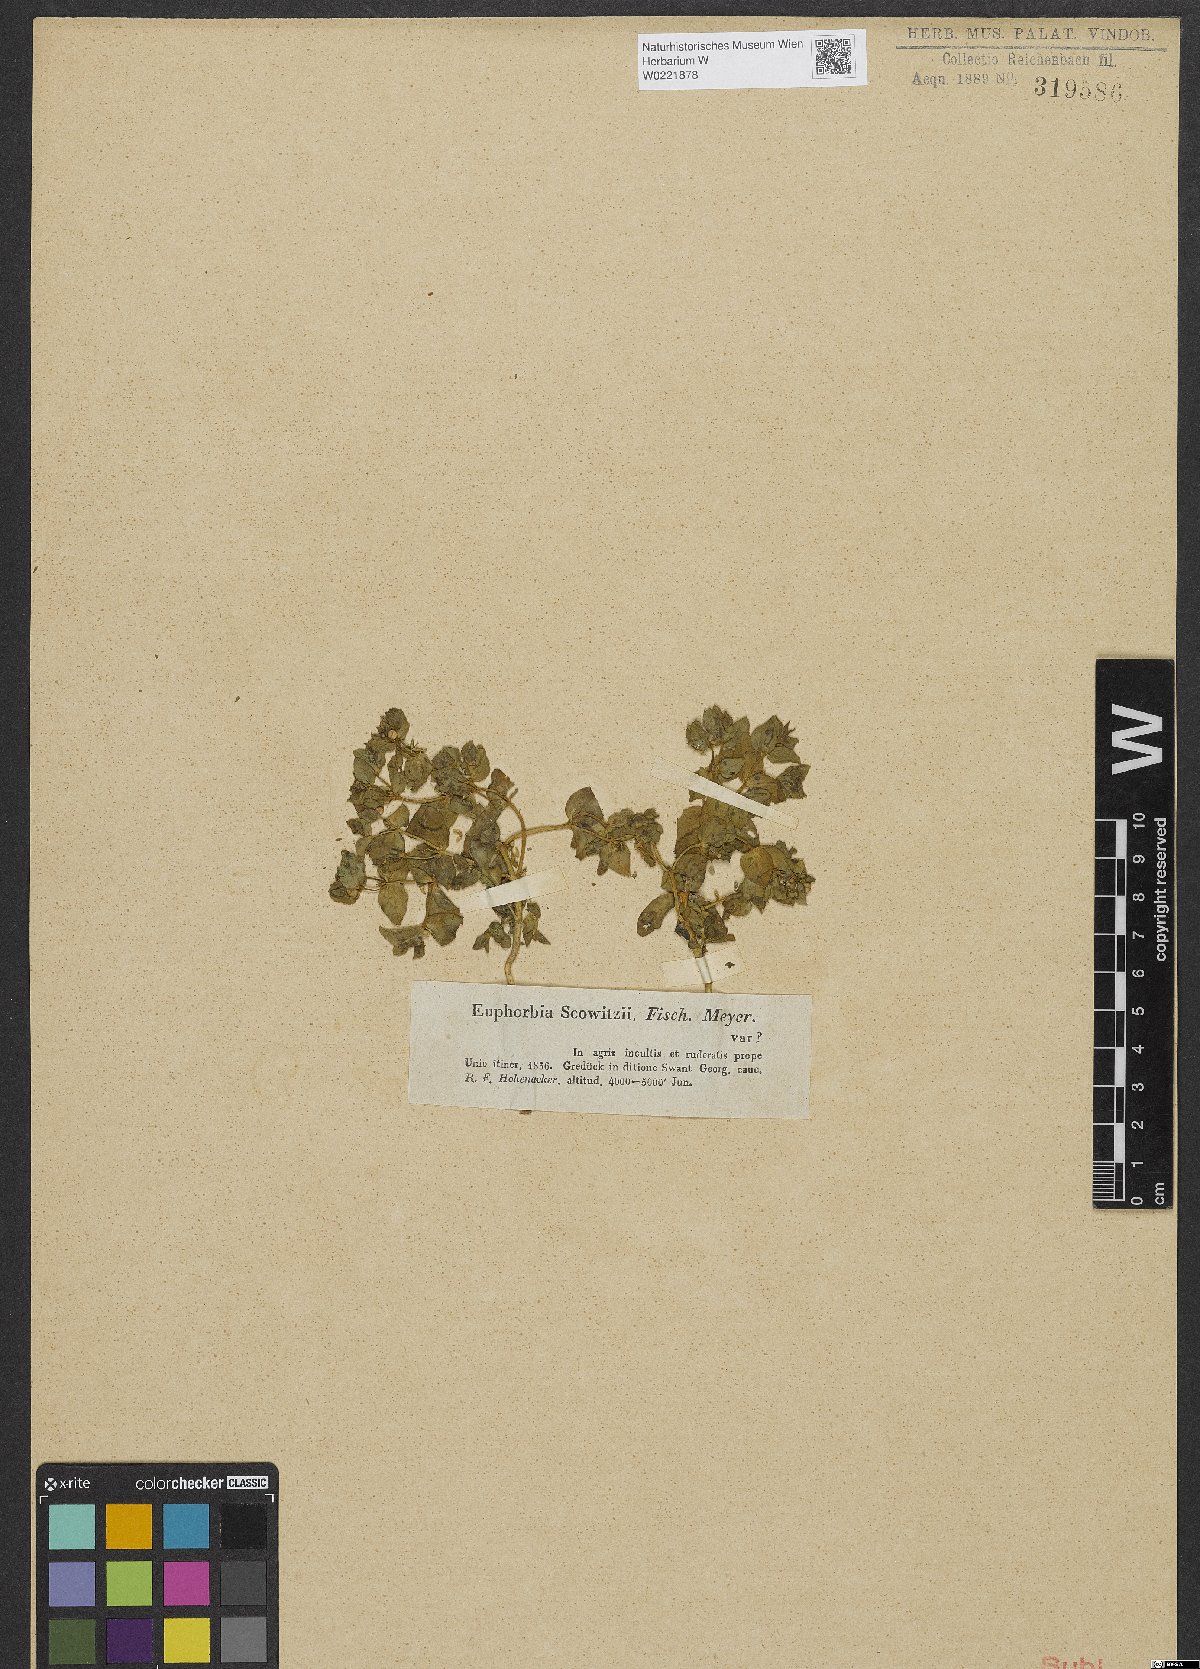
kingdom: Plantae
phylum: Tracheophyta
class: Magnoliopsida
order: Malpighiales
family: Euphorbiaceae
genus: Euphorbia
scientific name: Euphorbia arvalis
